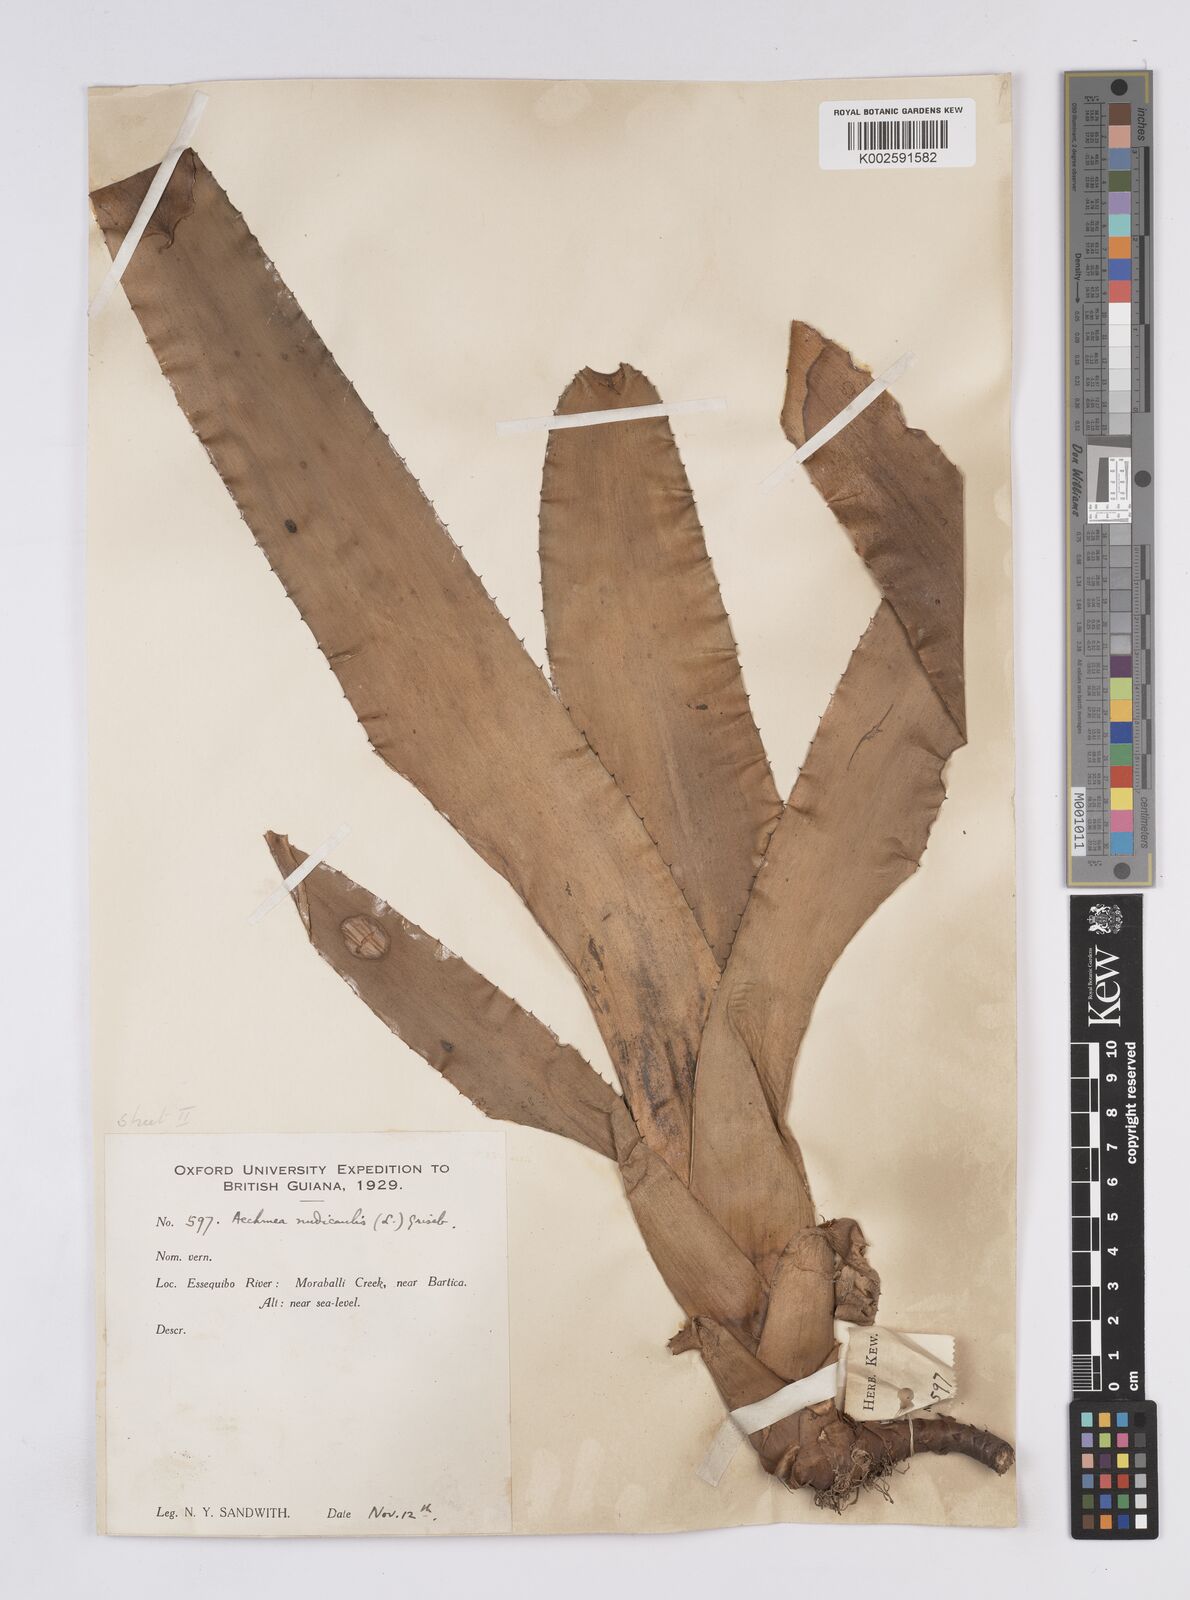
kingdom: Plantae
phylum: Tracheophyta
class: Liliopsida
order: Poales
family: Bromeliaceae
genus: Aechmea
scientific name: Aechmea nudicaulis
